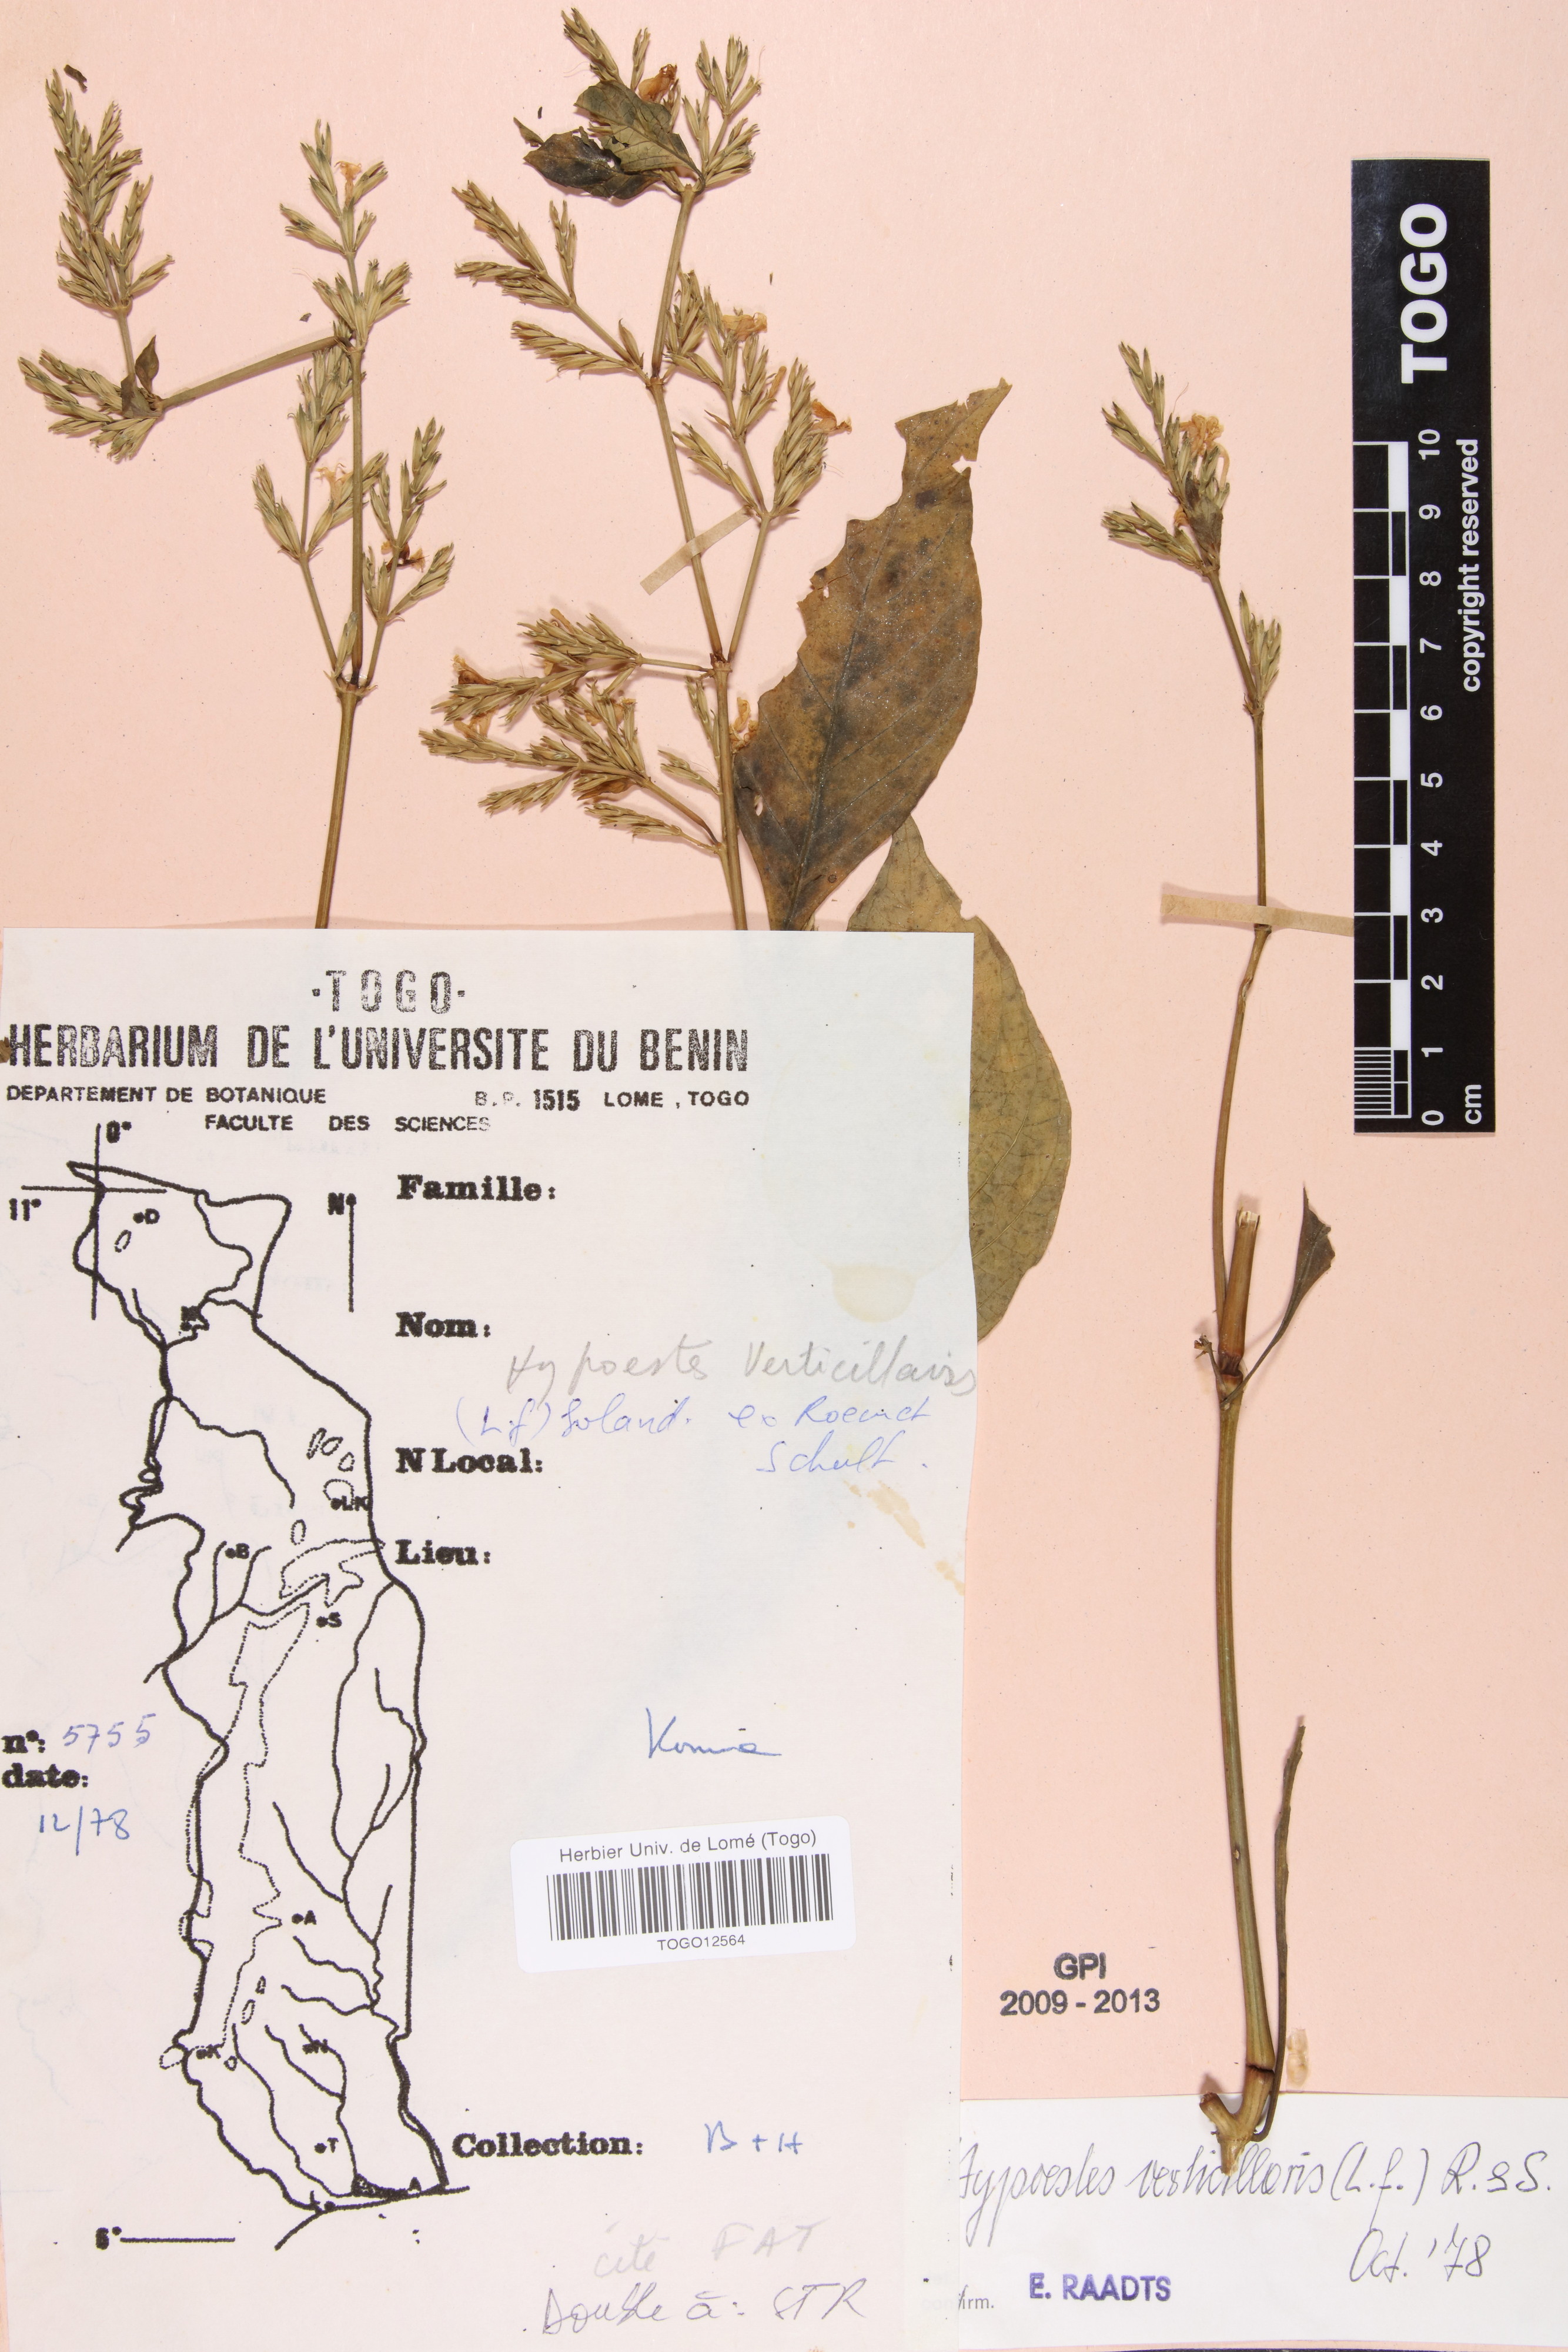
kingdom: Plantae
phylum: Tracheophyta
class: Magnoliopsida
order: Lamiales
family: Acanthaceae
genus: Hypoestes
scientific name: Hypoestes aristata
